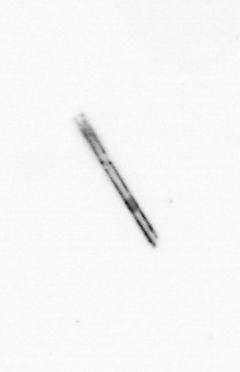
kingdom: Chromista
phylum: Ochrophyta
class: Bacillariophyceae
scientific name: Bacillariophyceae
